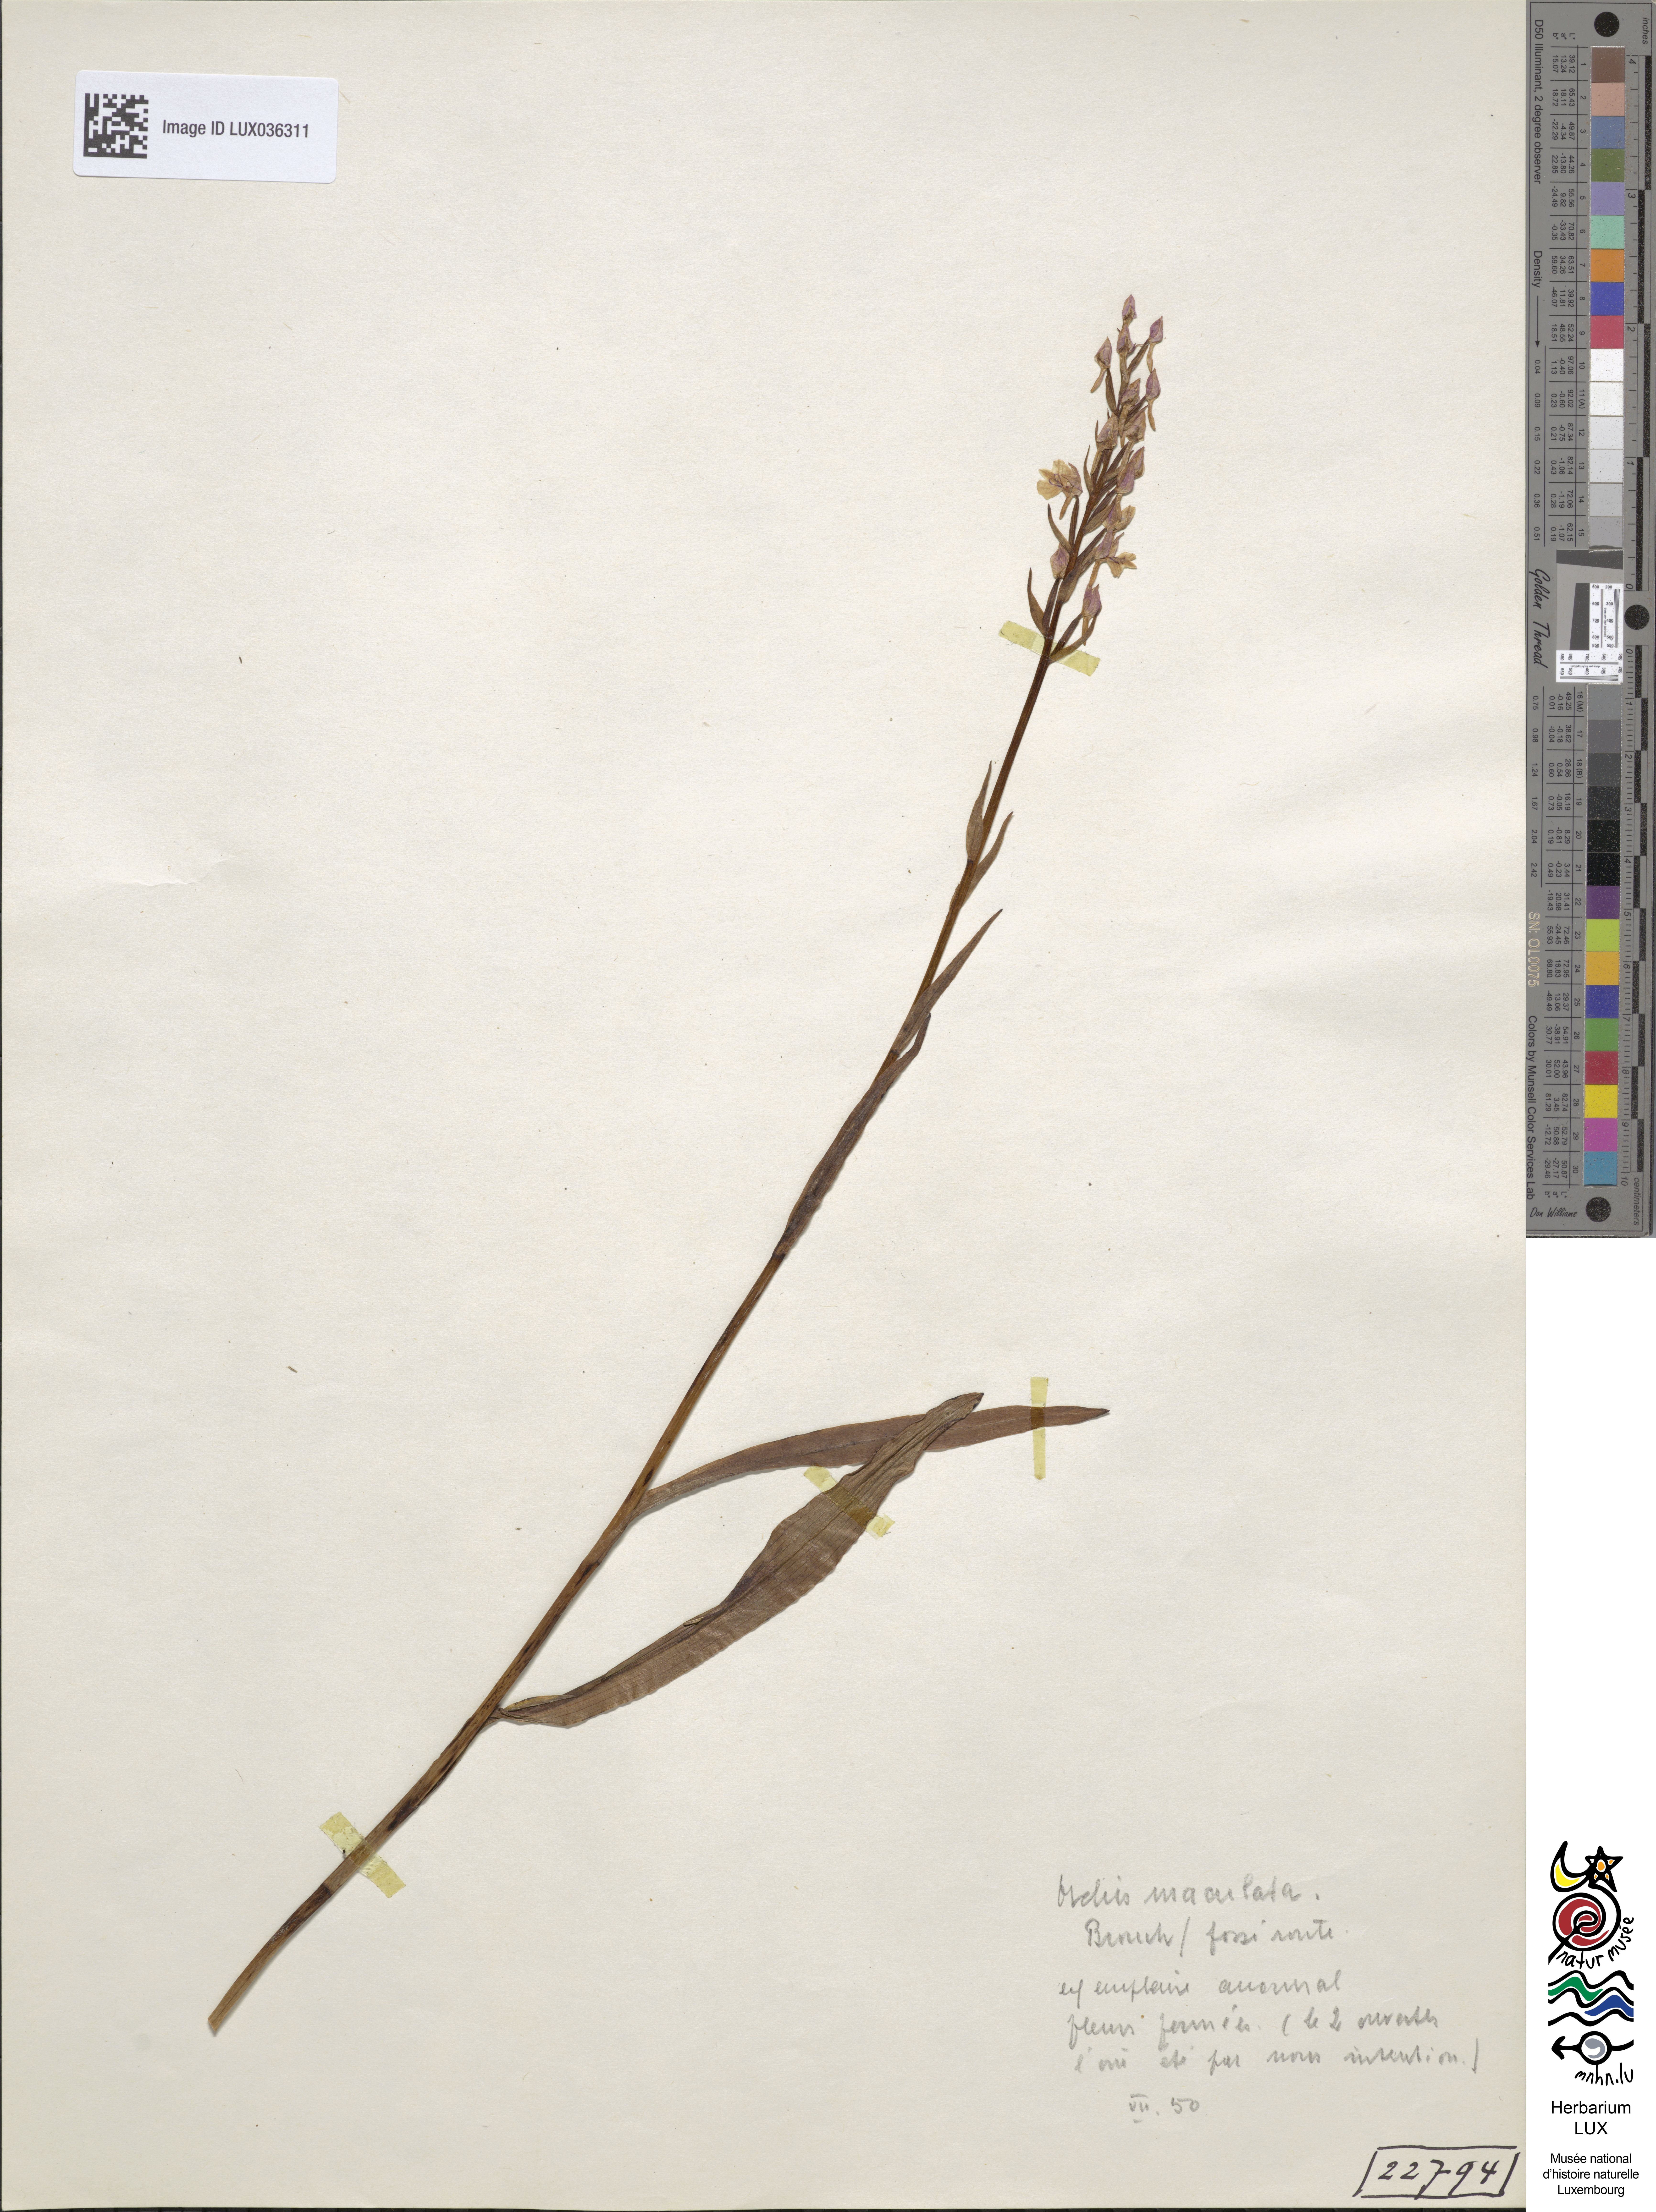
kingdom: Plantae
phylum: Tracheophyta
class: Liliopsida
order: Asparagales
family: Orchidaceae
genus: Dactylorhiza
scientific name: Dactylorhiza maculata
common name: Heath spotted-orchid
